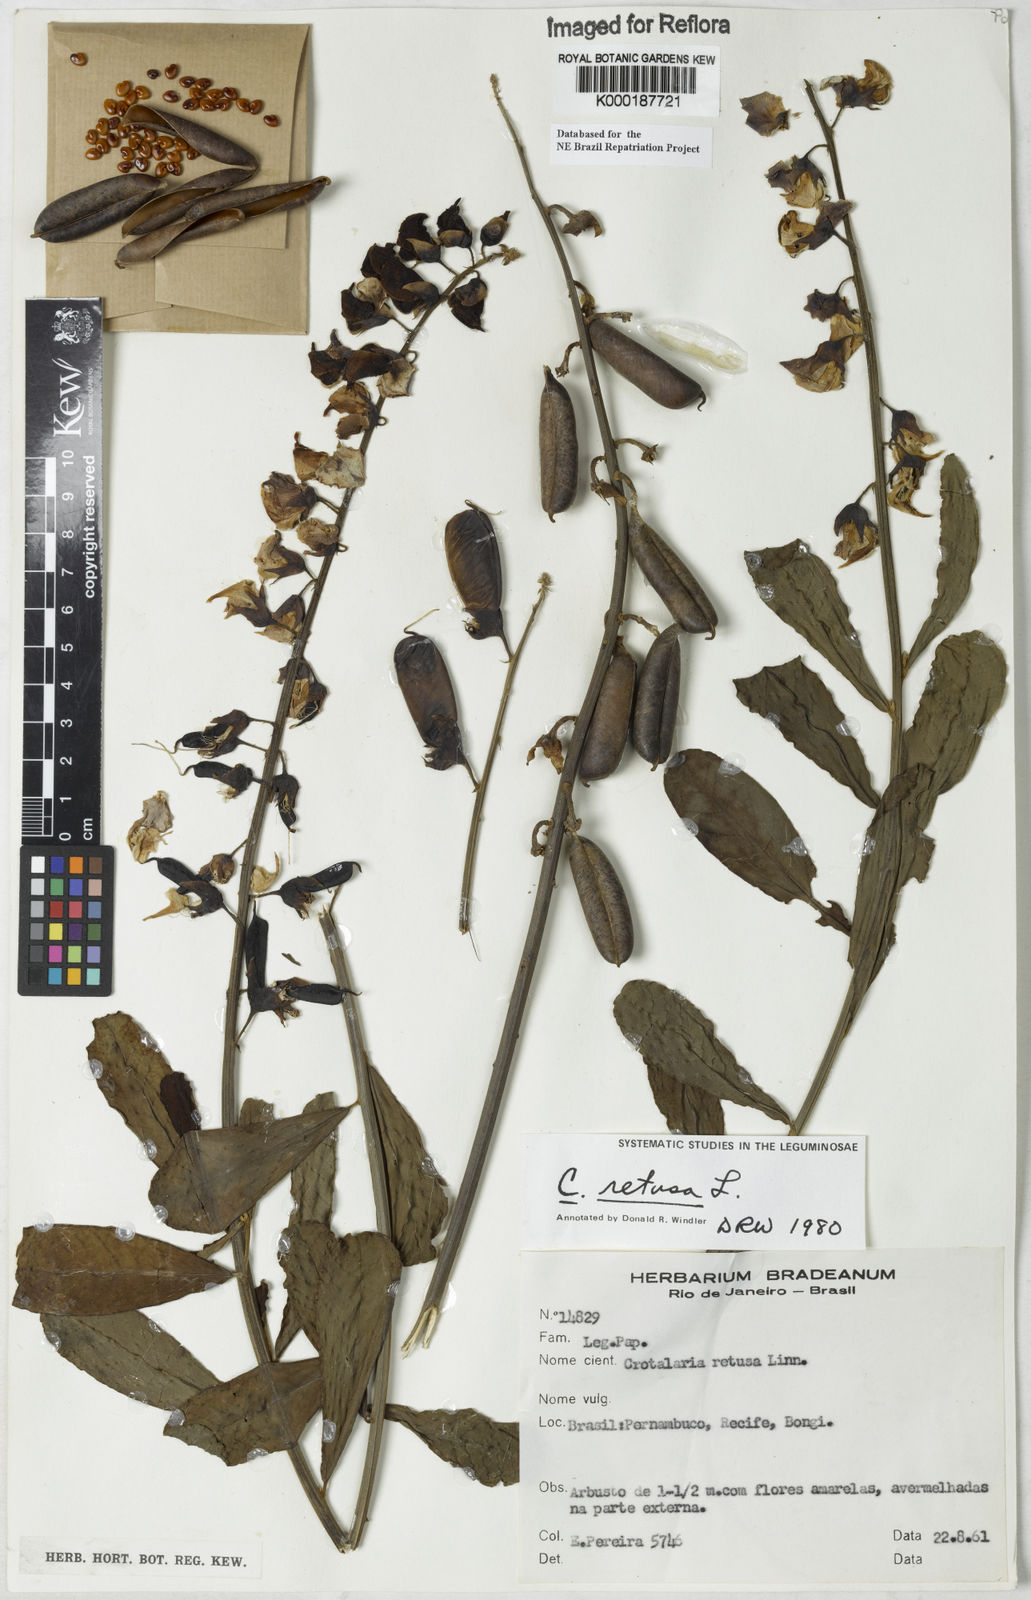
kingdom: Plantae
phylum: Tracheophyta
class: Magnoliopsida
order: Fabales
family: Fabaceae
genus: Crotalaria
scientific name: Crotalaria retusa
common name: Rattleweed
